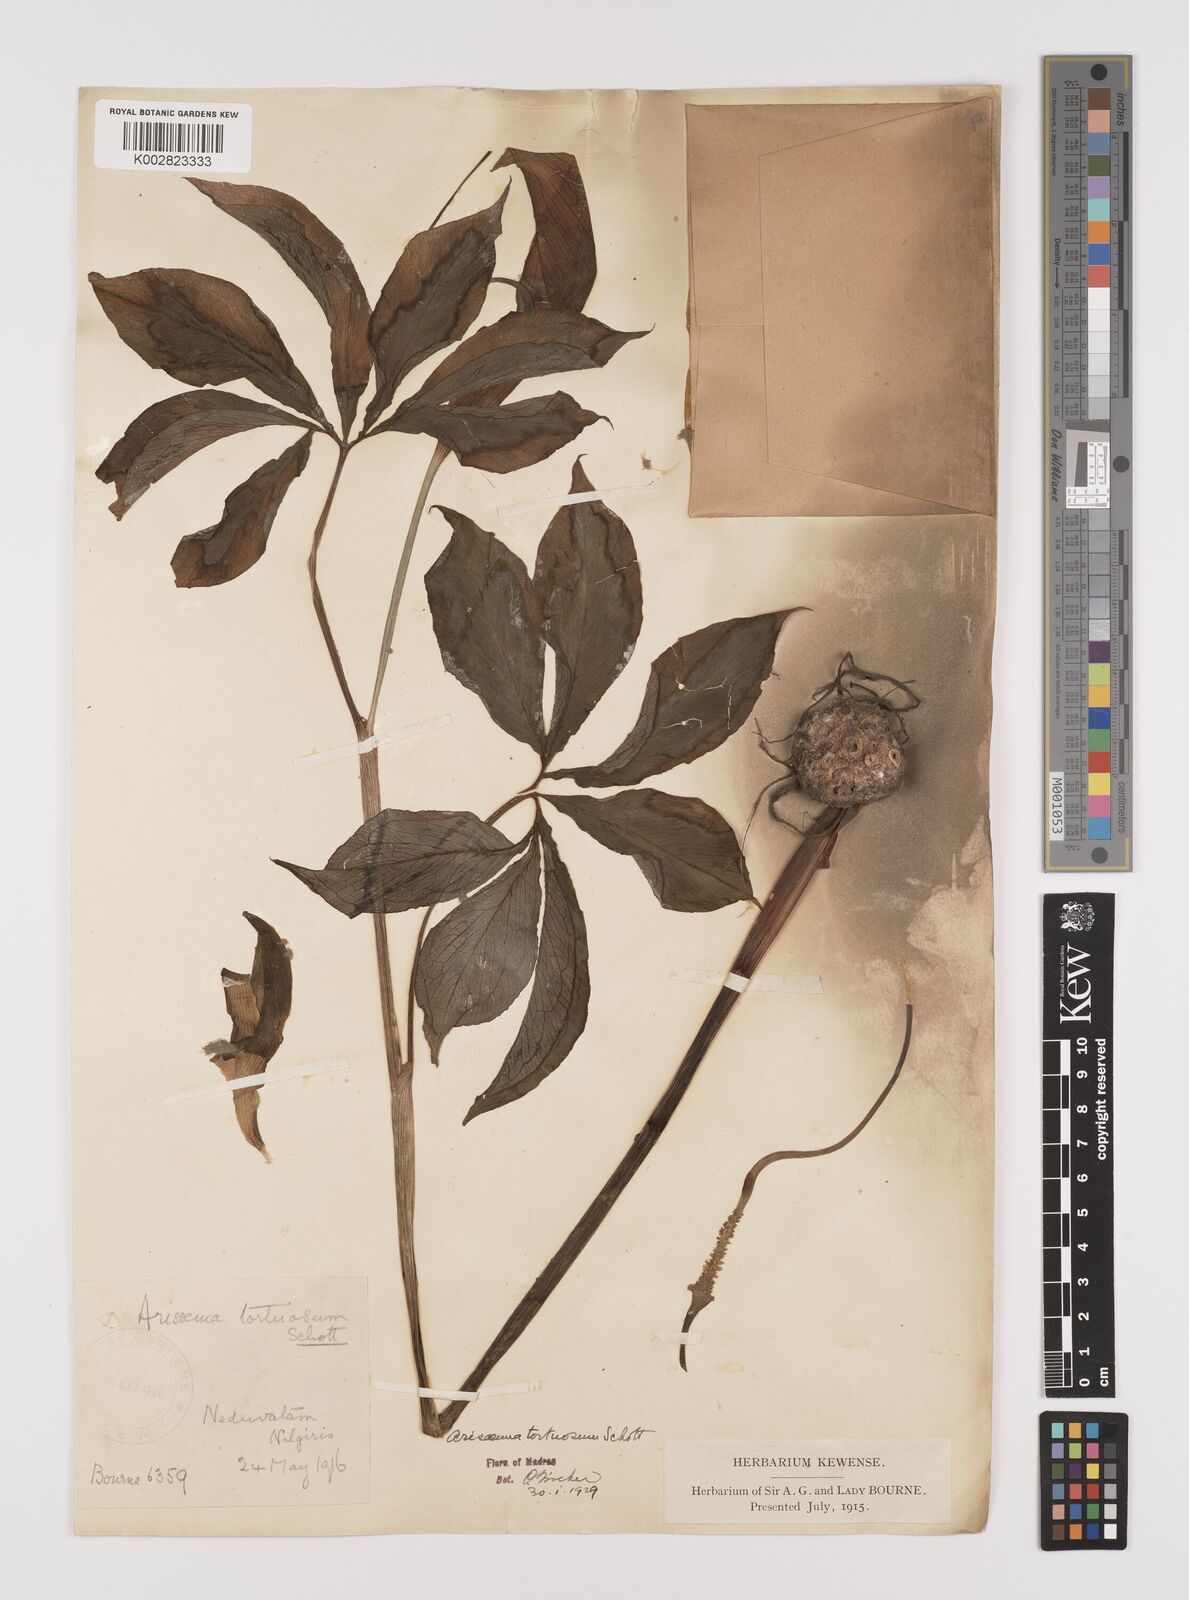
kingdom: Plantae
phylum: Tracheophyta
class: Liliopsida
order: Alismatales
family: Araceae
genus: Arisaema
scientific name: Arisaema tortuosum
